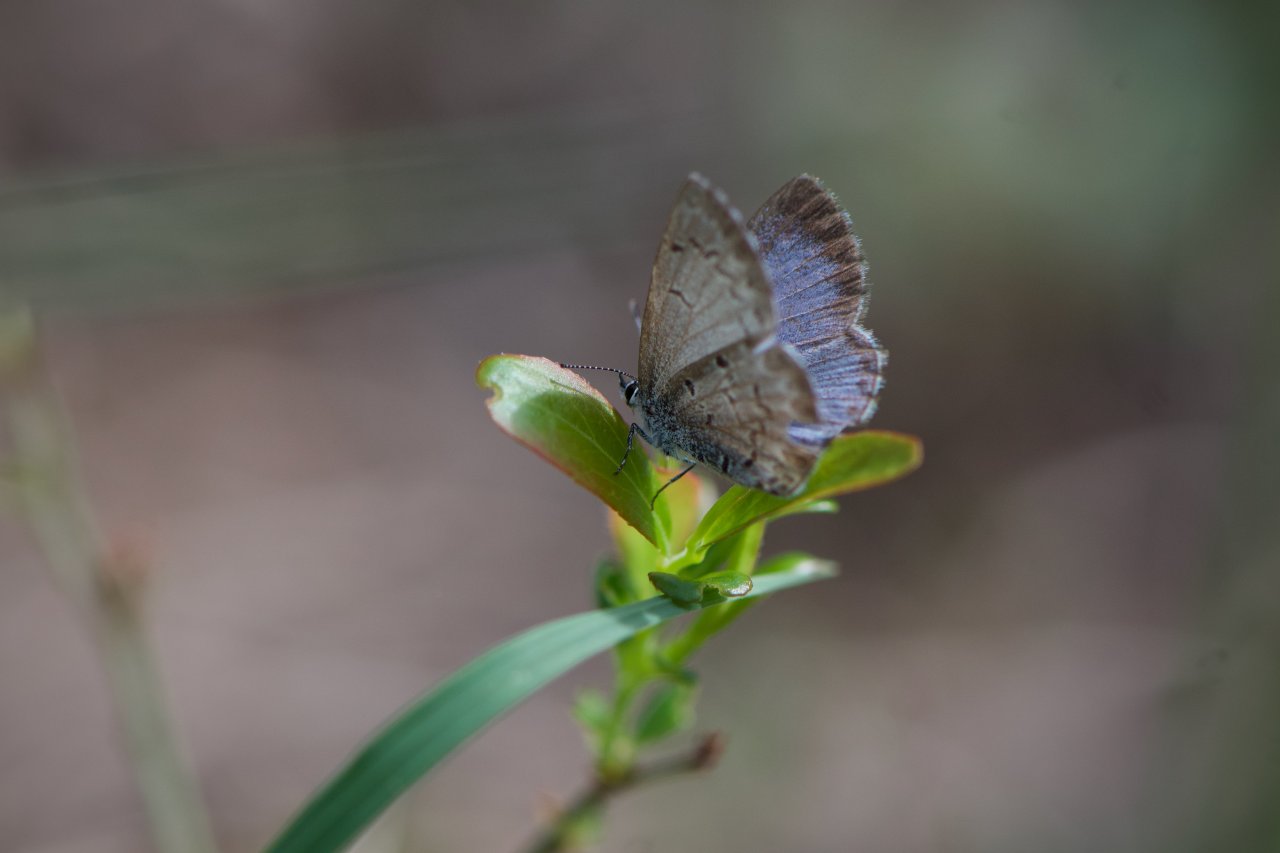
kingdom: Animalia
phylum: Arthropoda
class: Insecta
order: Lepidoptera
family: Lycaenidae
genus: Celastrina
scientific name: Celastrina lucia
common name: Northern Spring Azure
